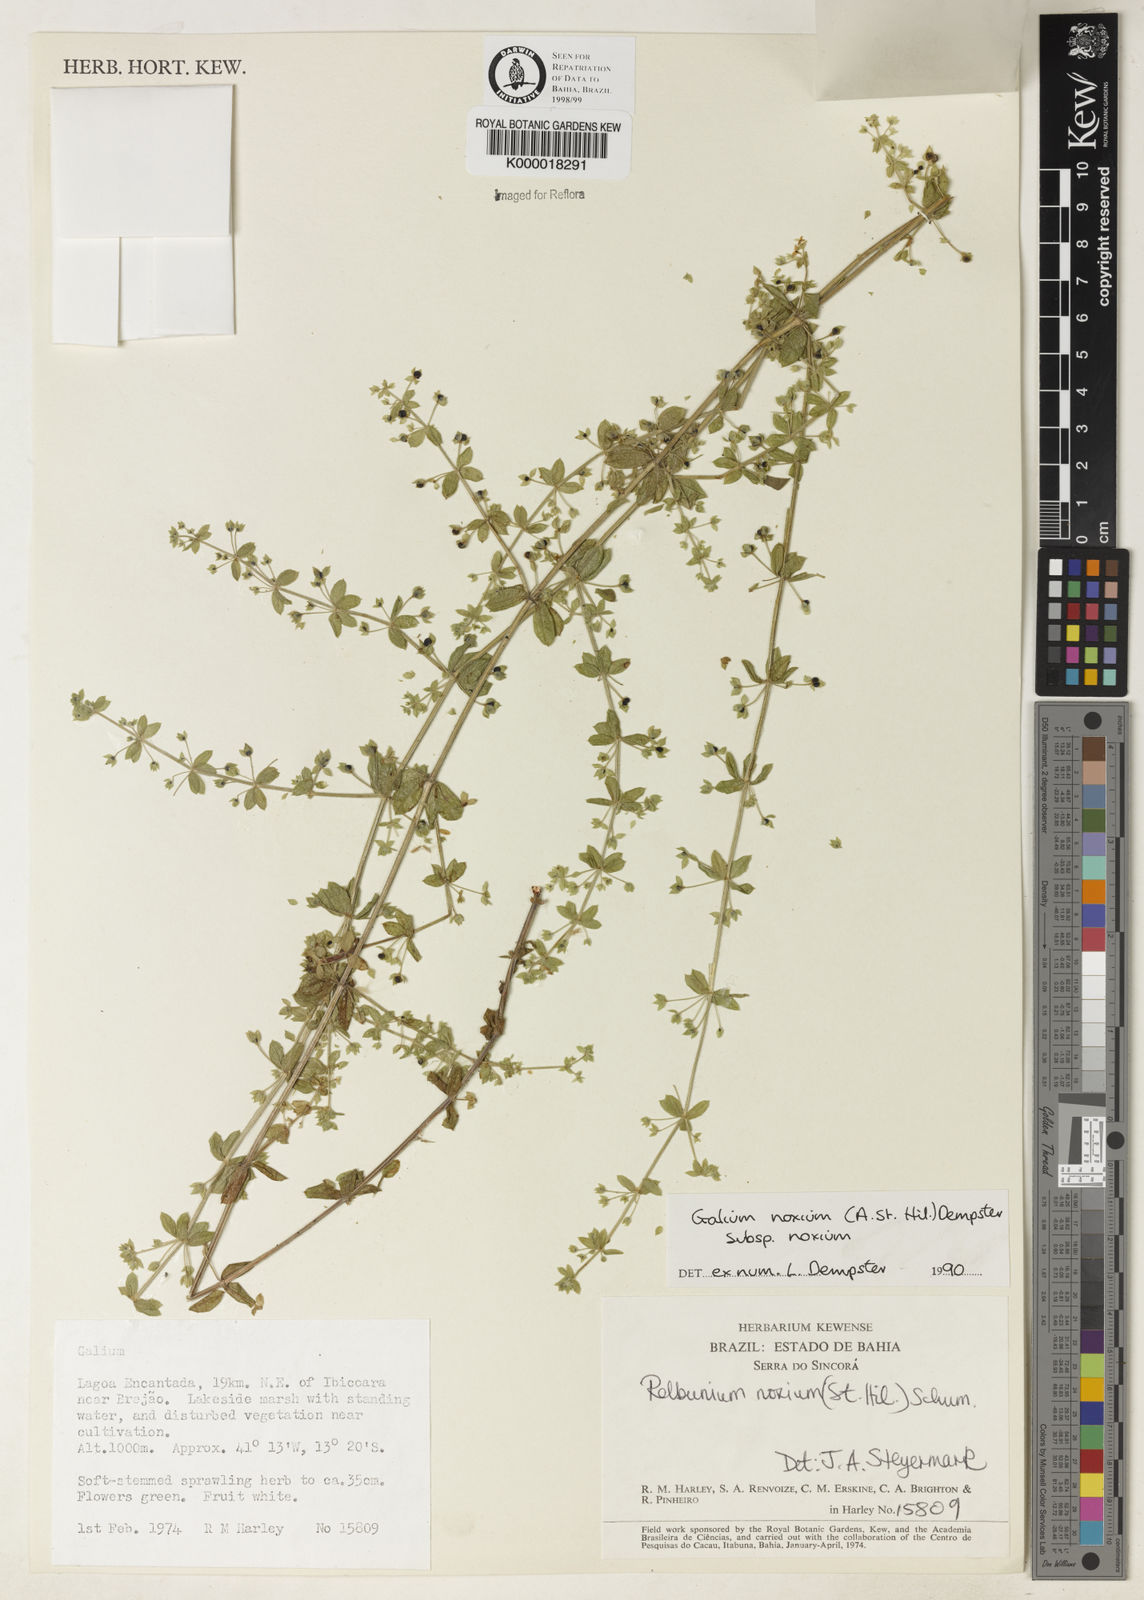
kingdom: Plantae
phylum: Tracheophyta
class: Magnoliopsida
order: Gentianales
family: Rubiaceae
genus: Galium
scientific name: Galium noxium
